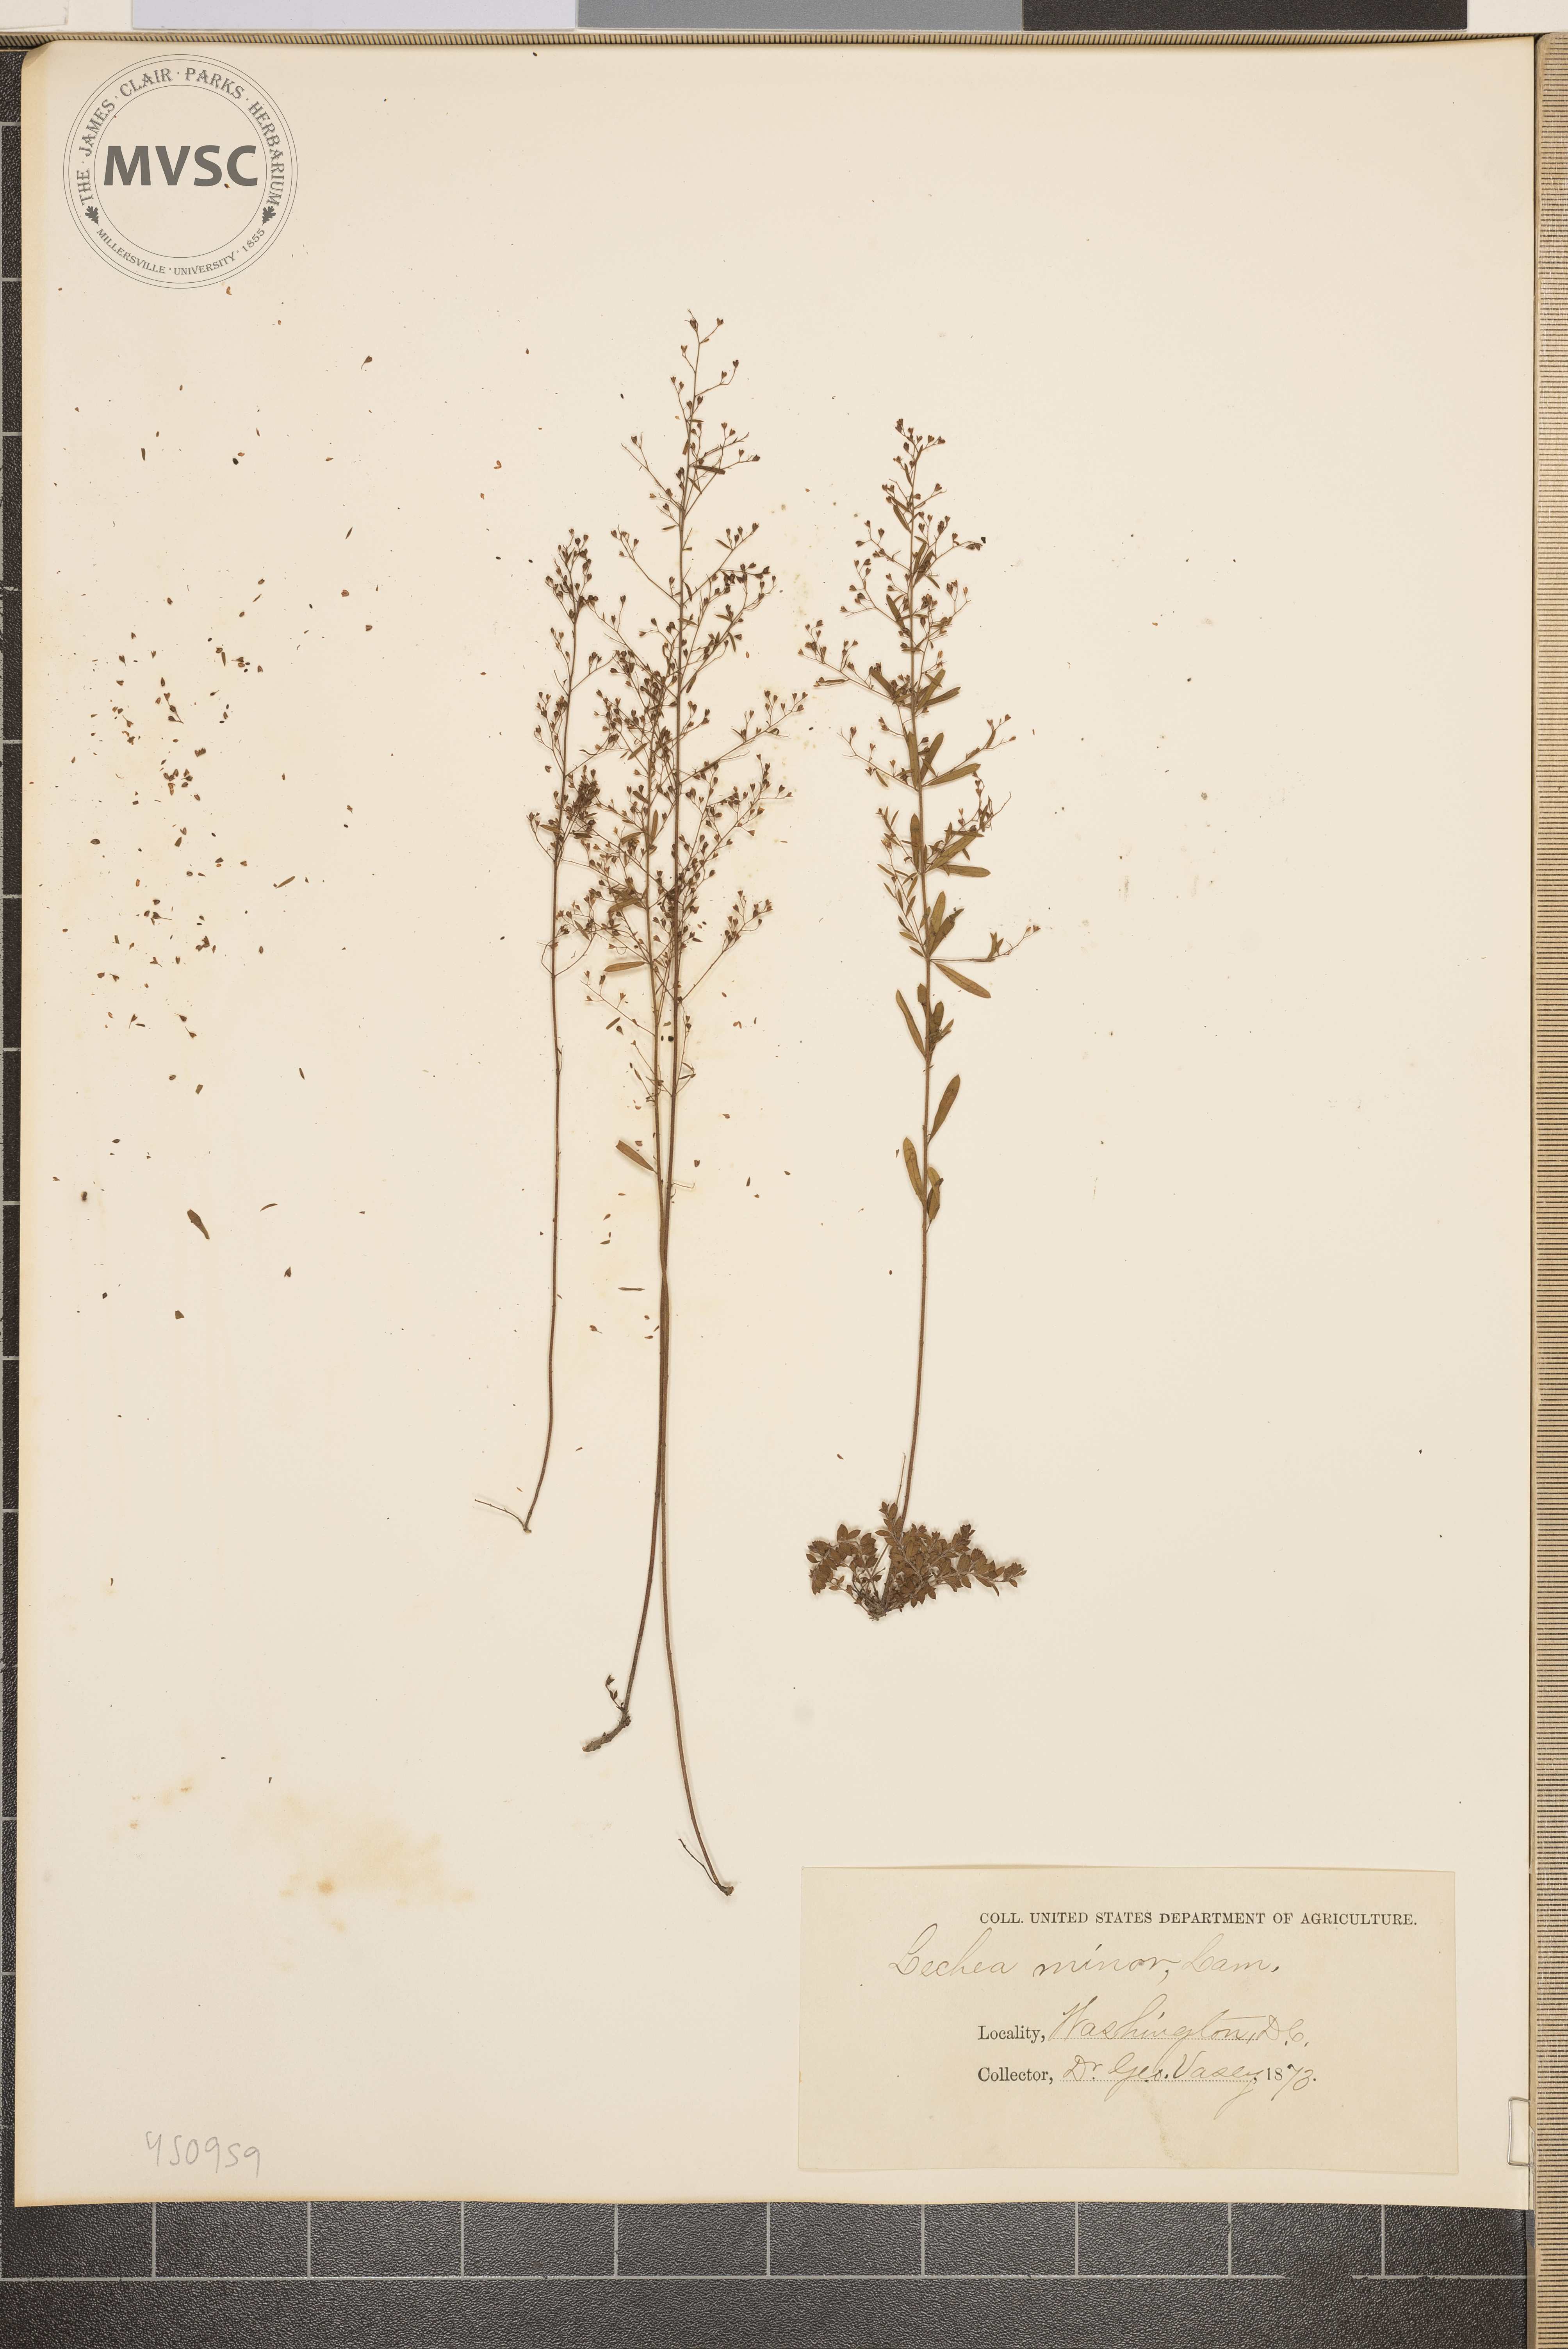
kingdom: Plantae
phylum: Tracheophyta
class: Magnoliopsida
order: Malvales
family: Cistaceae
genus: Lechea
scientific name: Lechea minor
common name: Thyme-leaf pinweed
